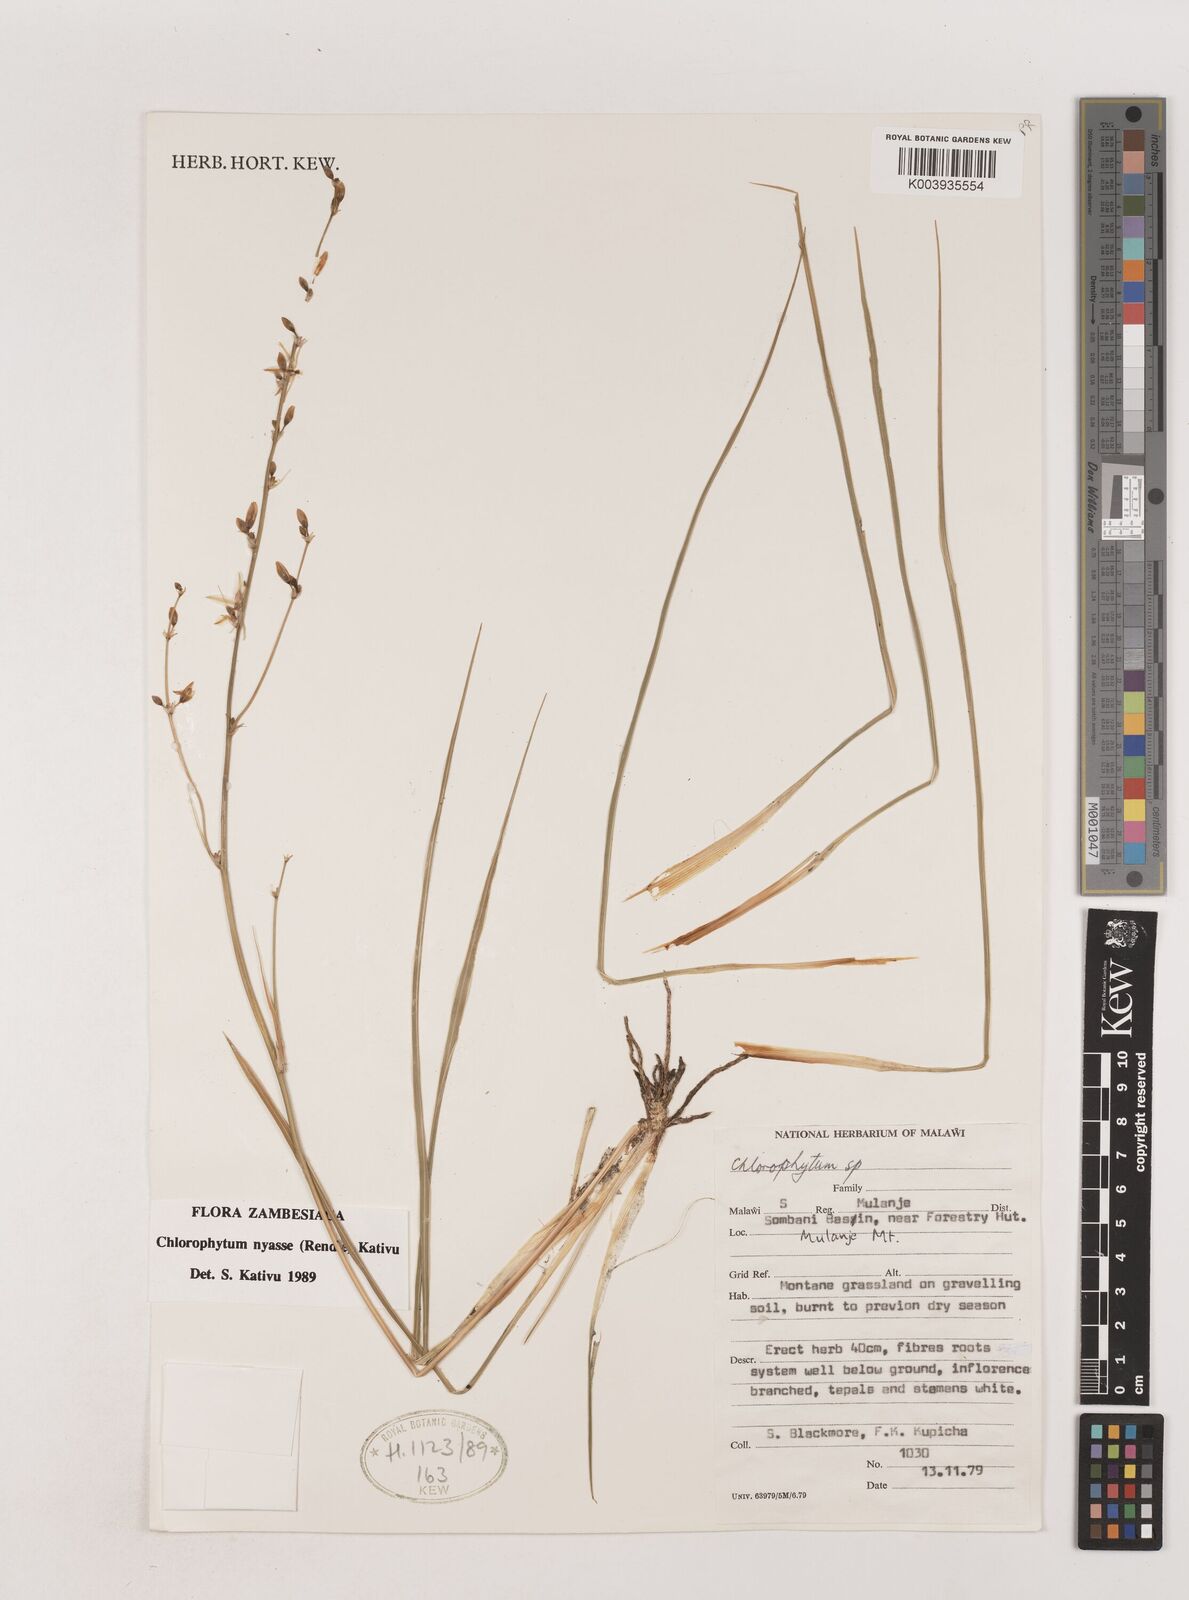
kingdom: Plantae
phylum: Tracheophyta
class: Liliopsida
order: Asparagales
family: Asparagaceae
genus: Chlorophytum
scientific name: Chlorophytum nyasae
